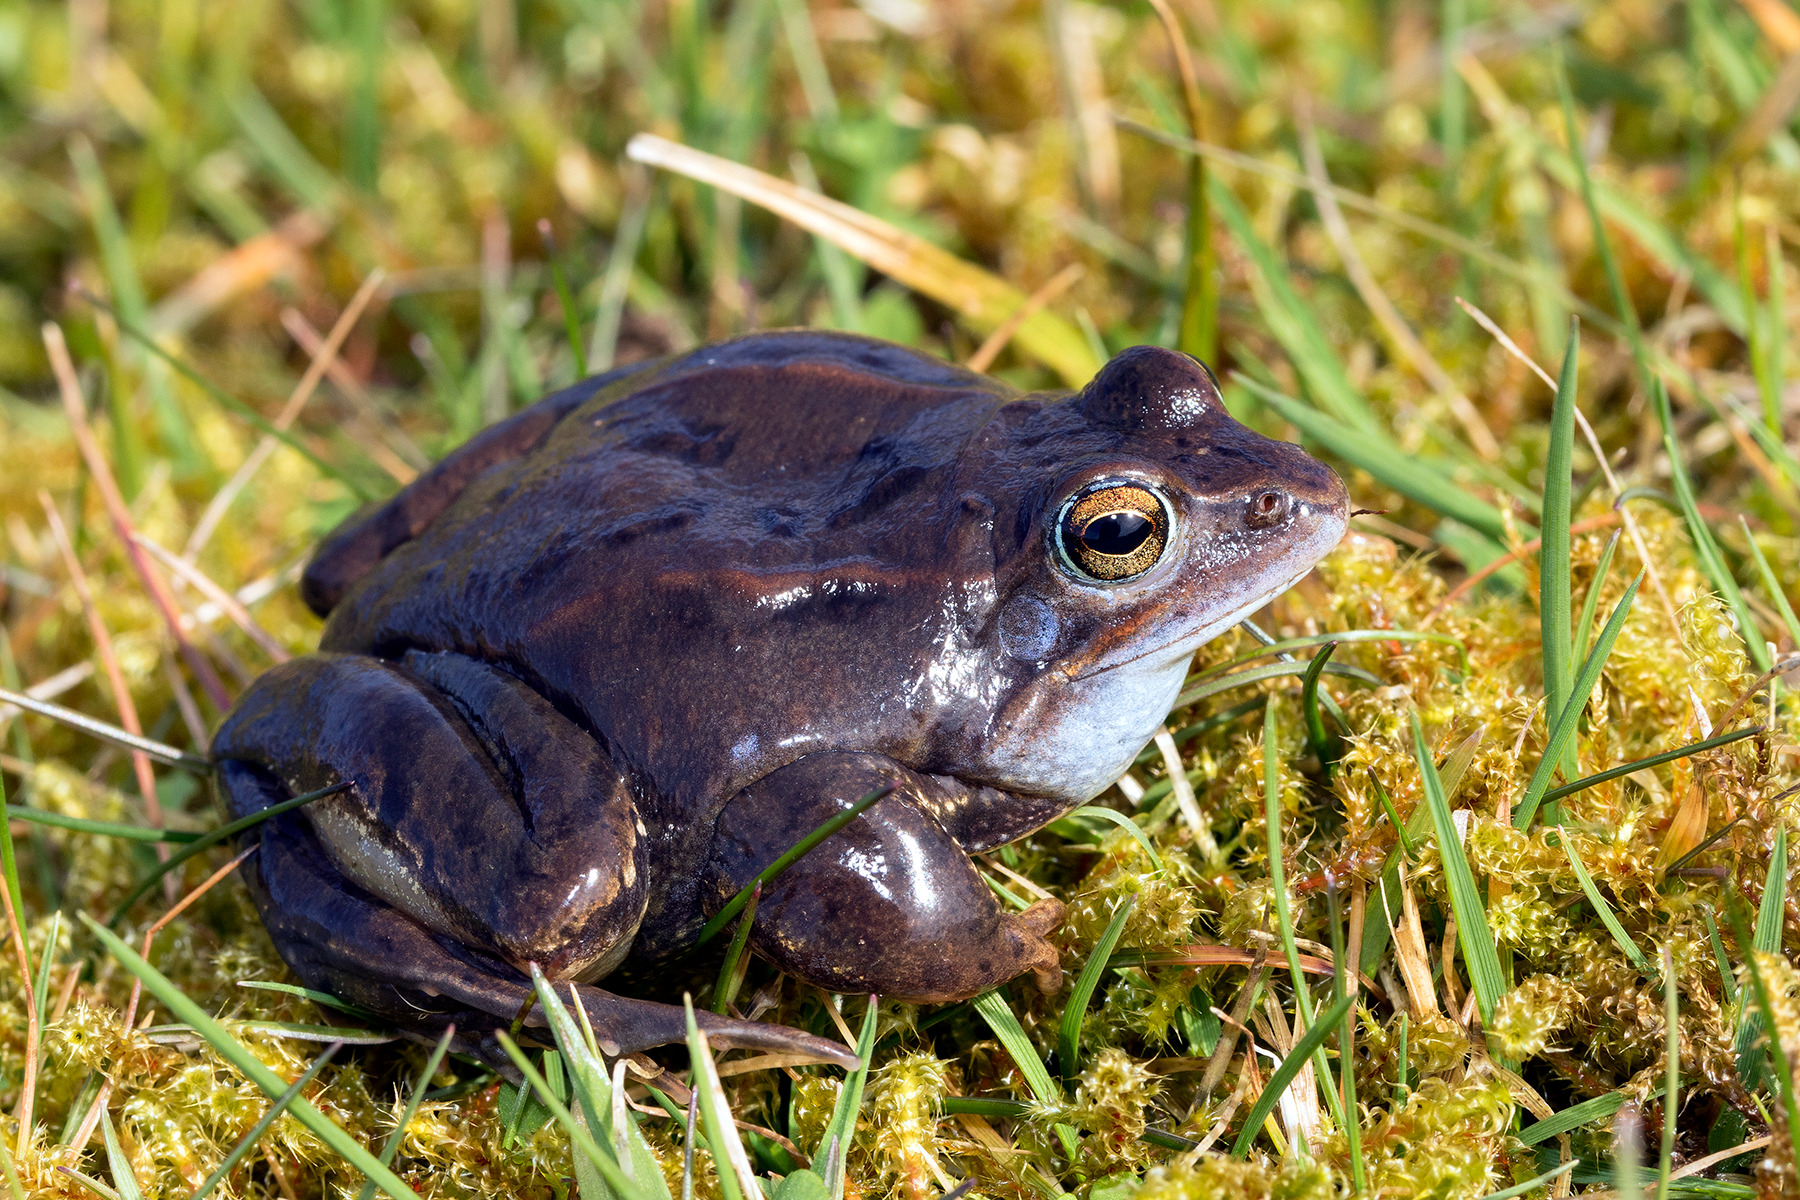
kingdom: Animalia
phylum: Chordata
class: Amphibia
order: Anura
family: Ranidae
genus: Rana
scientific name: Rana arvalis
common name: Spidssnudet frø
